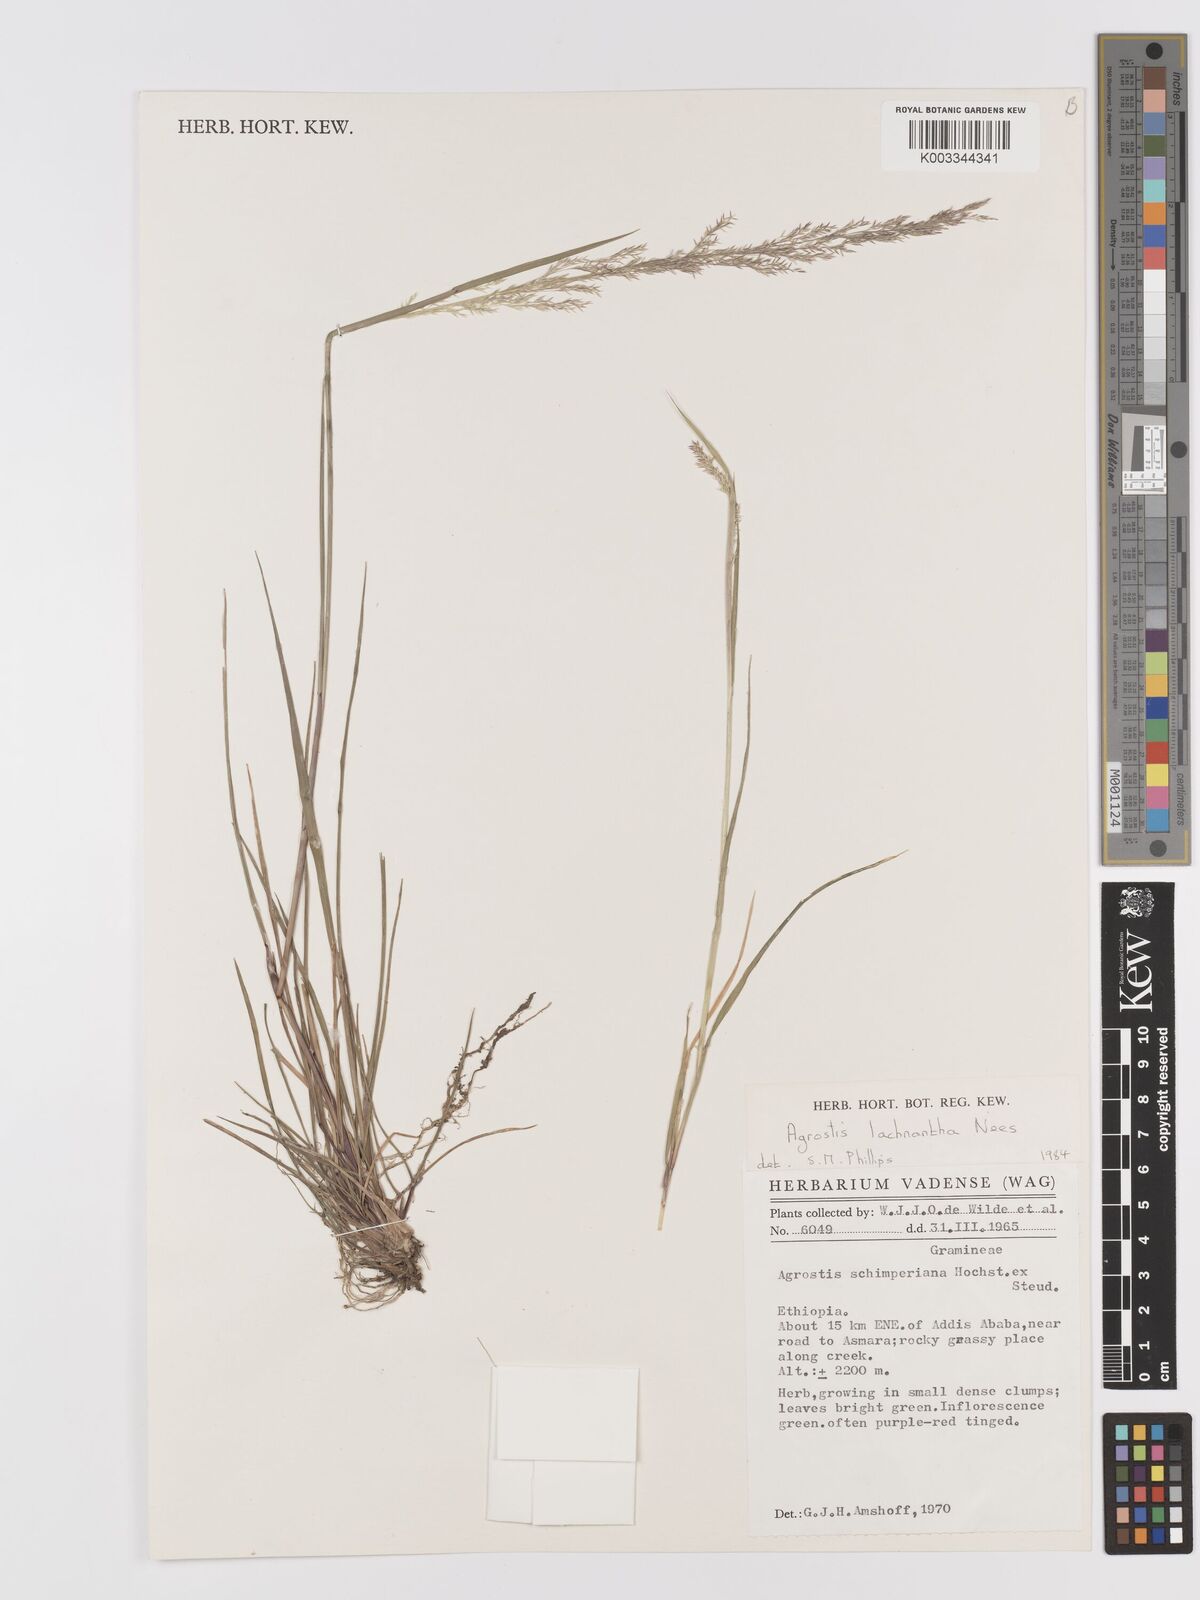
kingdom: Plantae
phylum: Tracheophyta
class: Liliopsida
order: Poales
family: Poaceae
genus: Lachnagrostis
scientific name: Lachnagrostis lachnantha
